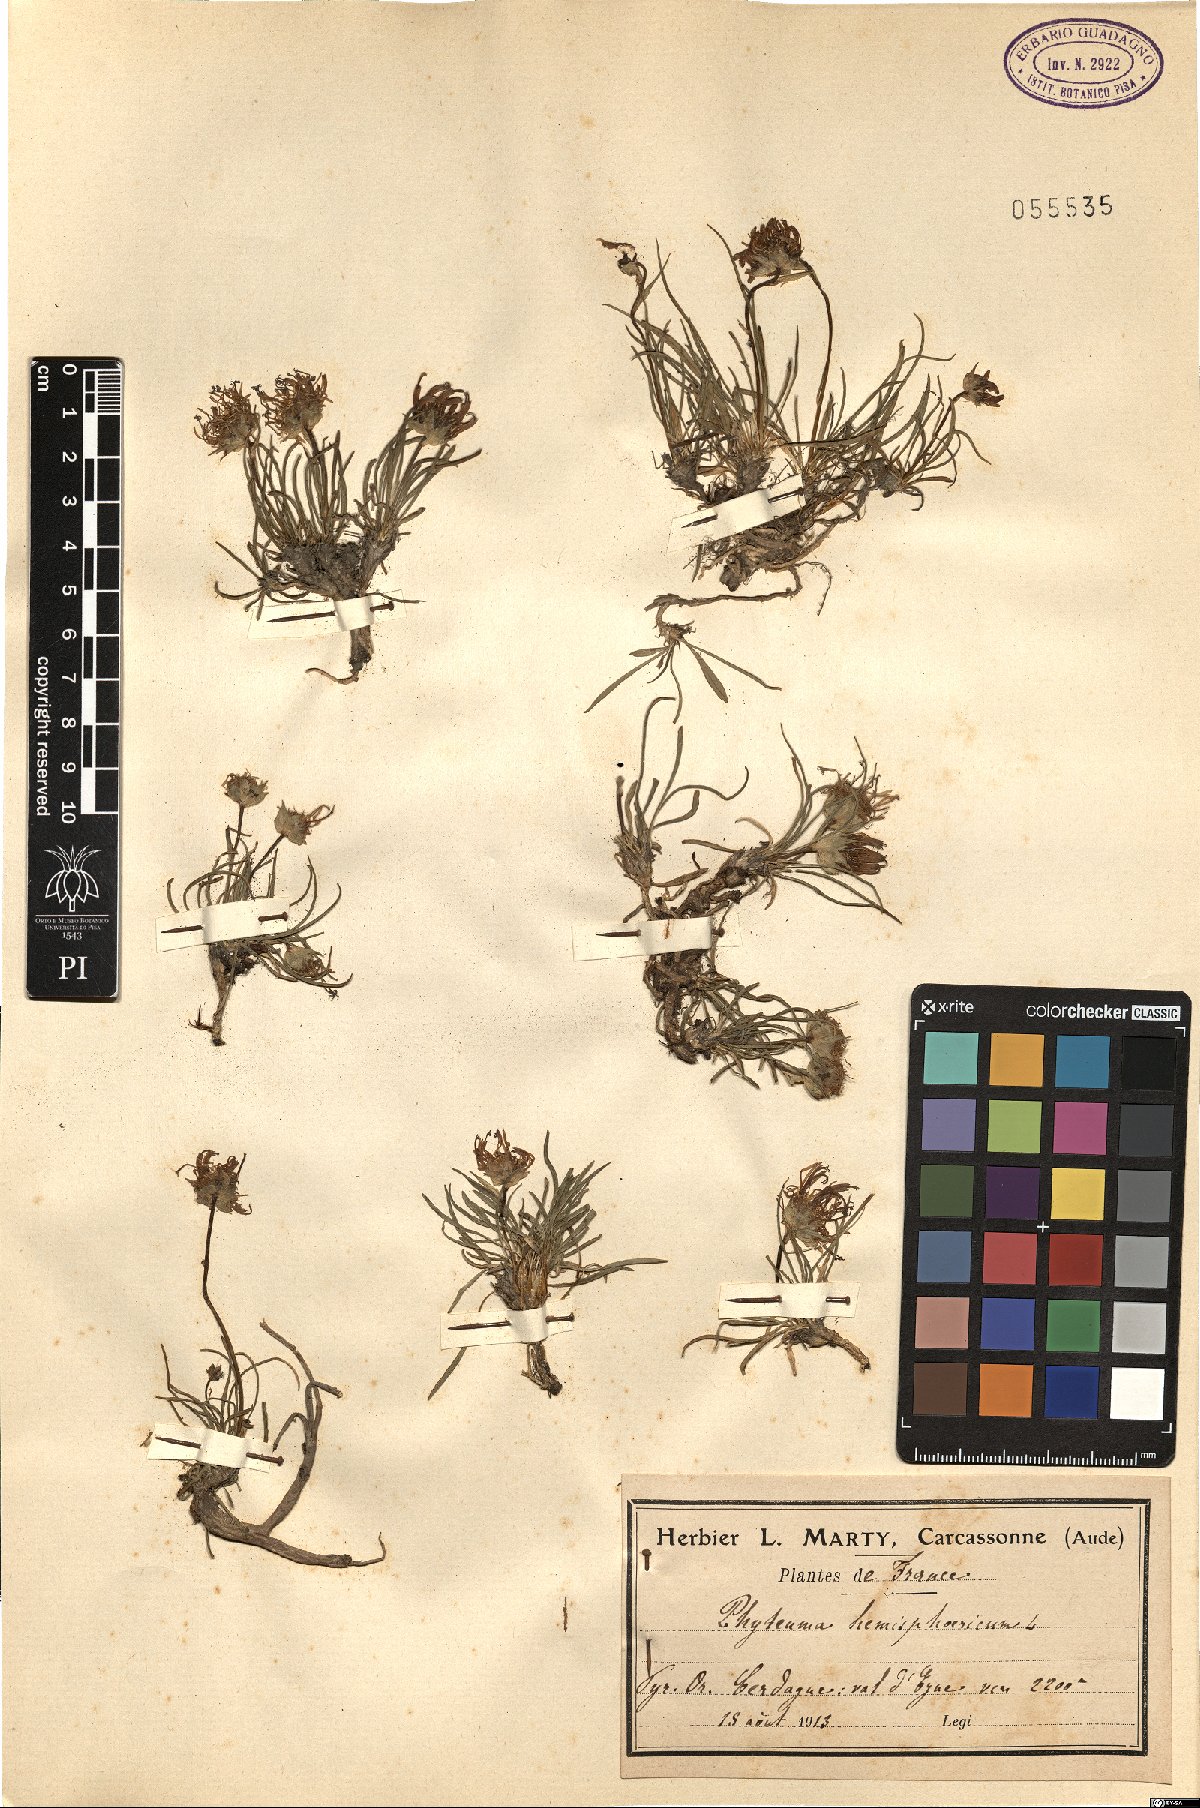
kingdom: Plantae
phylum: Tracheophyta
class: Magnoliopsida
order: Asterales
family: Campanulaceae
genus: Phyteuma
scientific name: Phyteuma hemisphaericum
